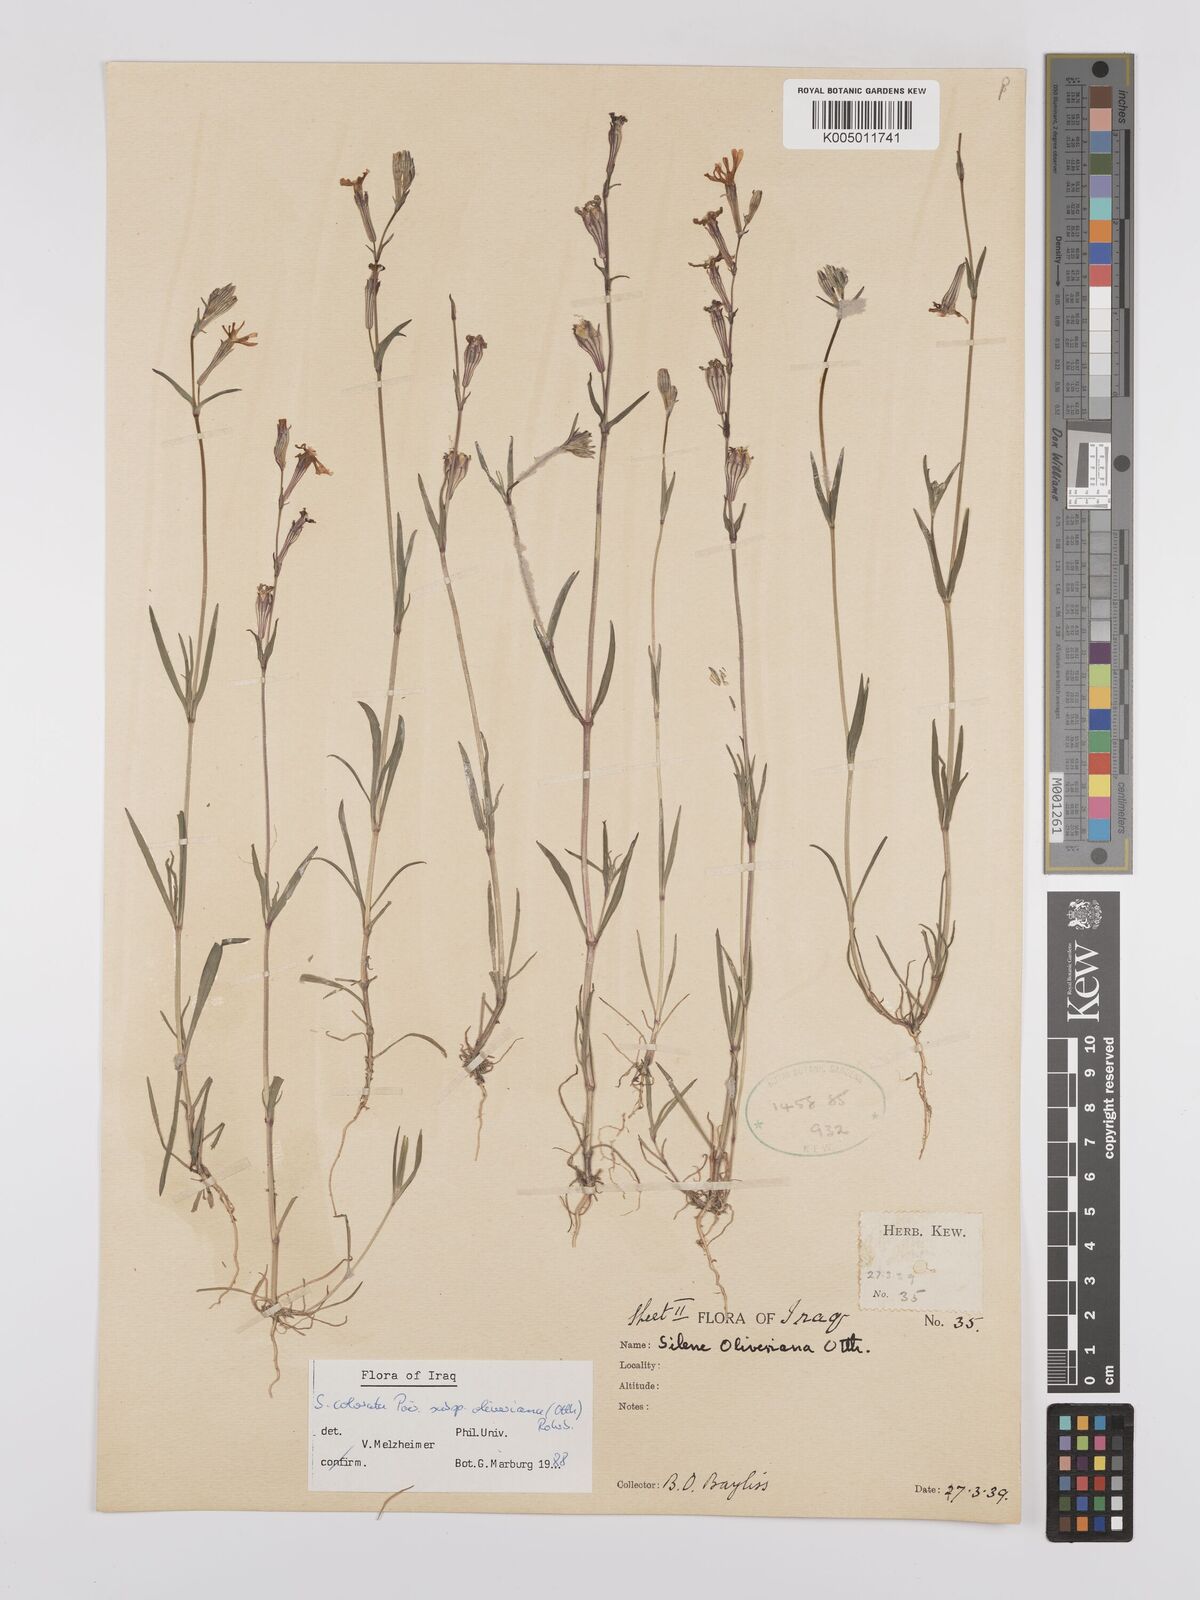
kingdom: Plantae
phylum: Tracheophyta
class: Magnoliopsida
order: Caryophyllales
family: Caryophyllaceae
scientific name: Caryophyllaceae
